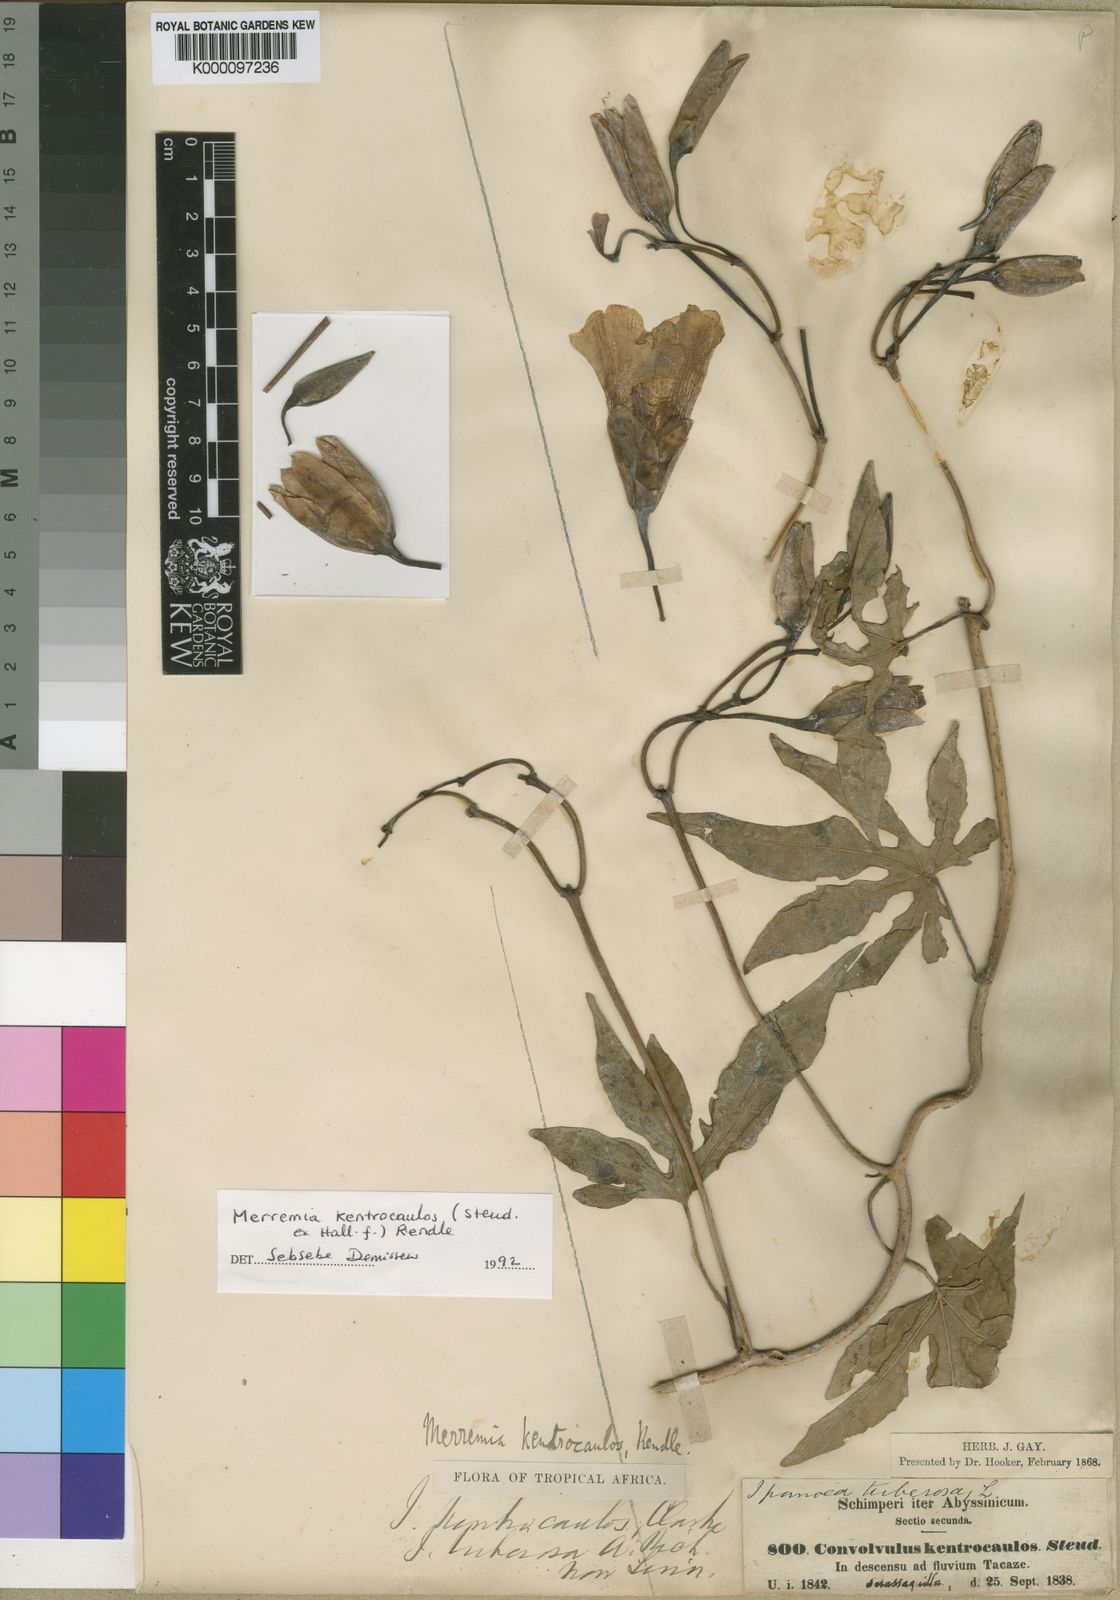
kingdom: Plantae
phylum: Tracheophyta
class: Magnoliopsida
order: Solanales
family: Convolvulaceae
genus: Distimake
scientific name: Distimake
